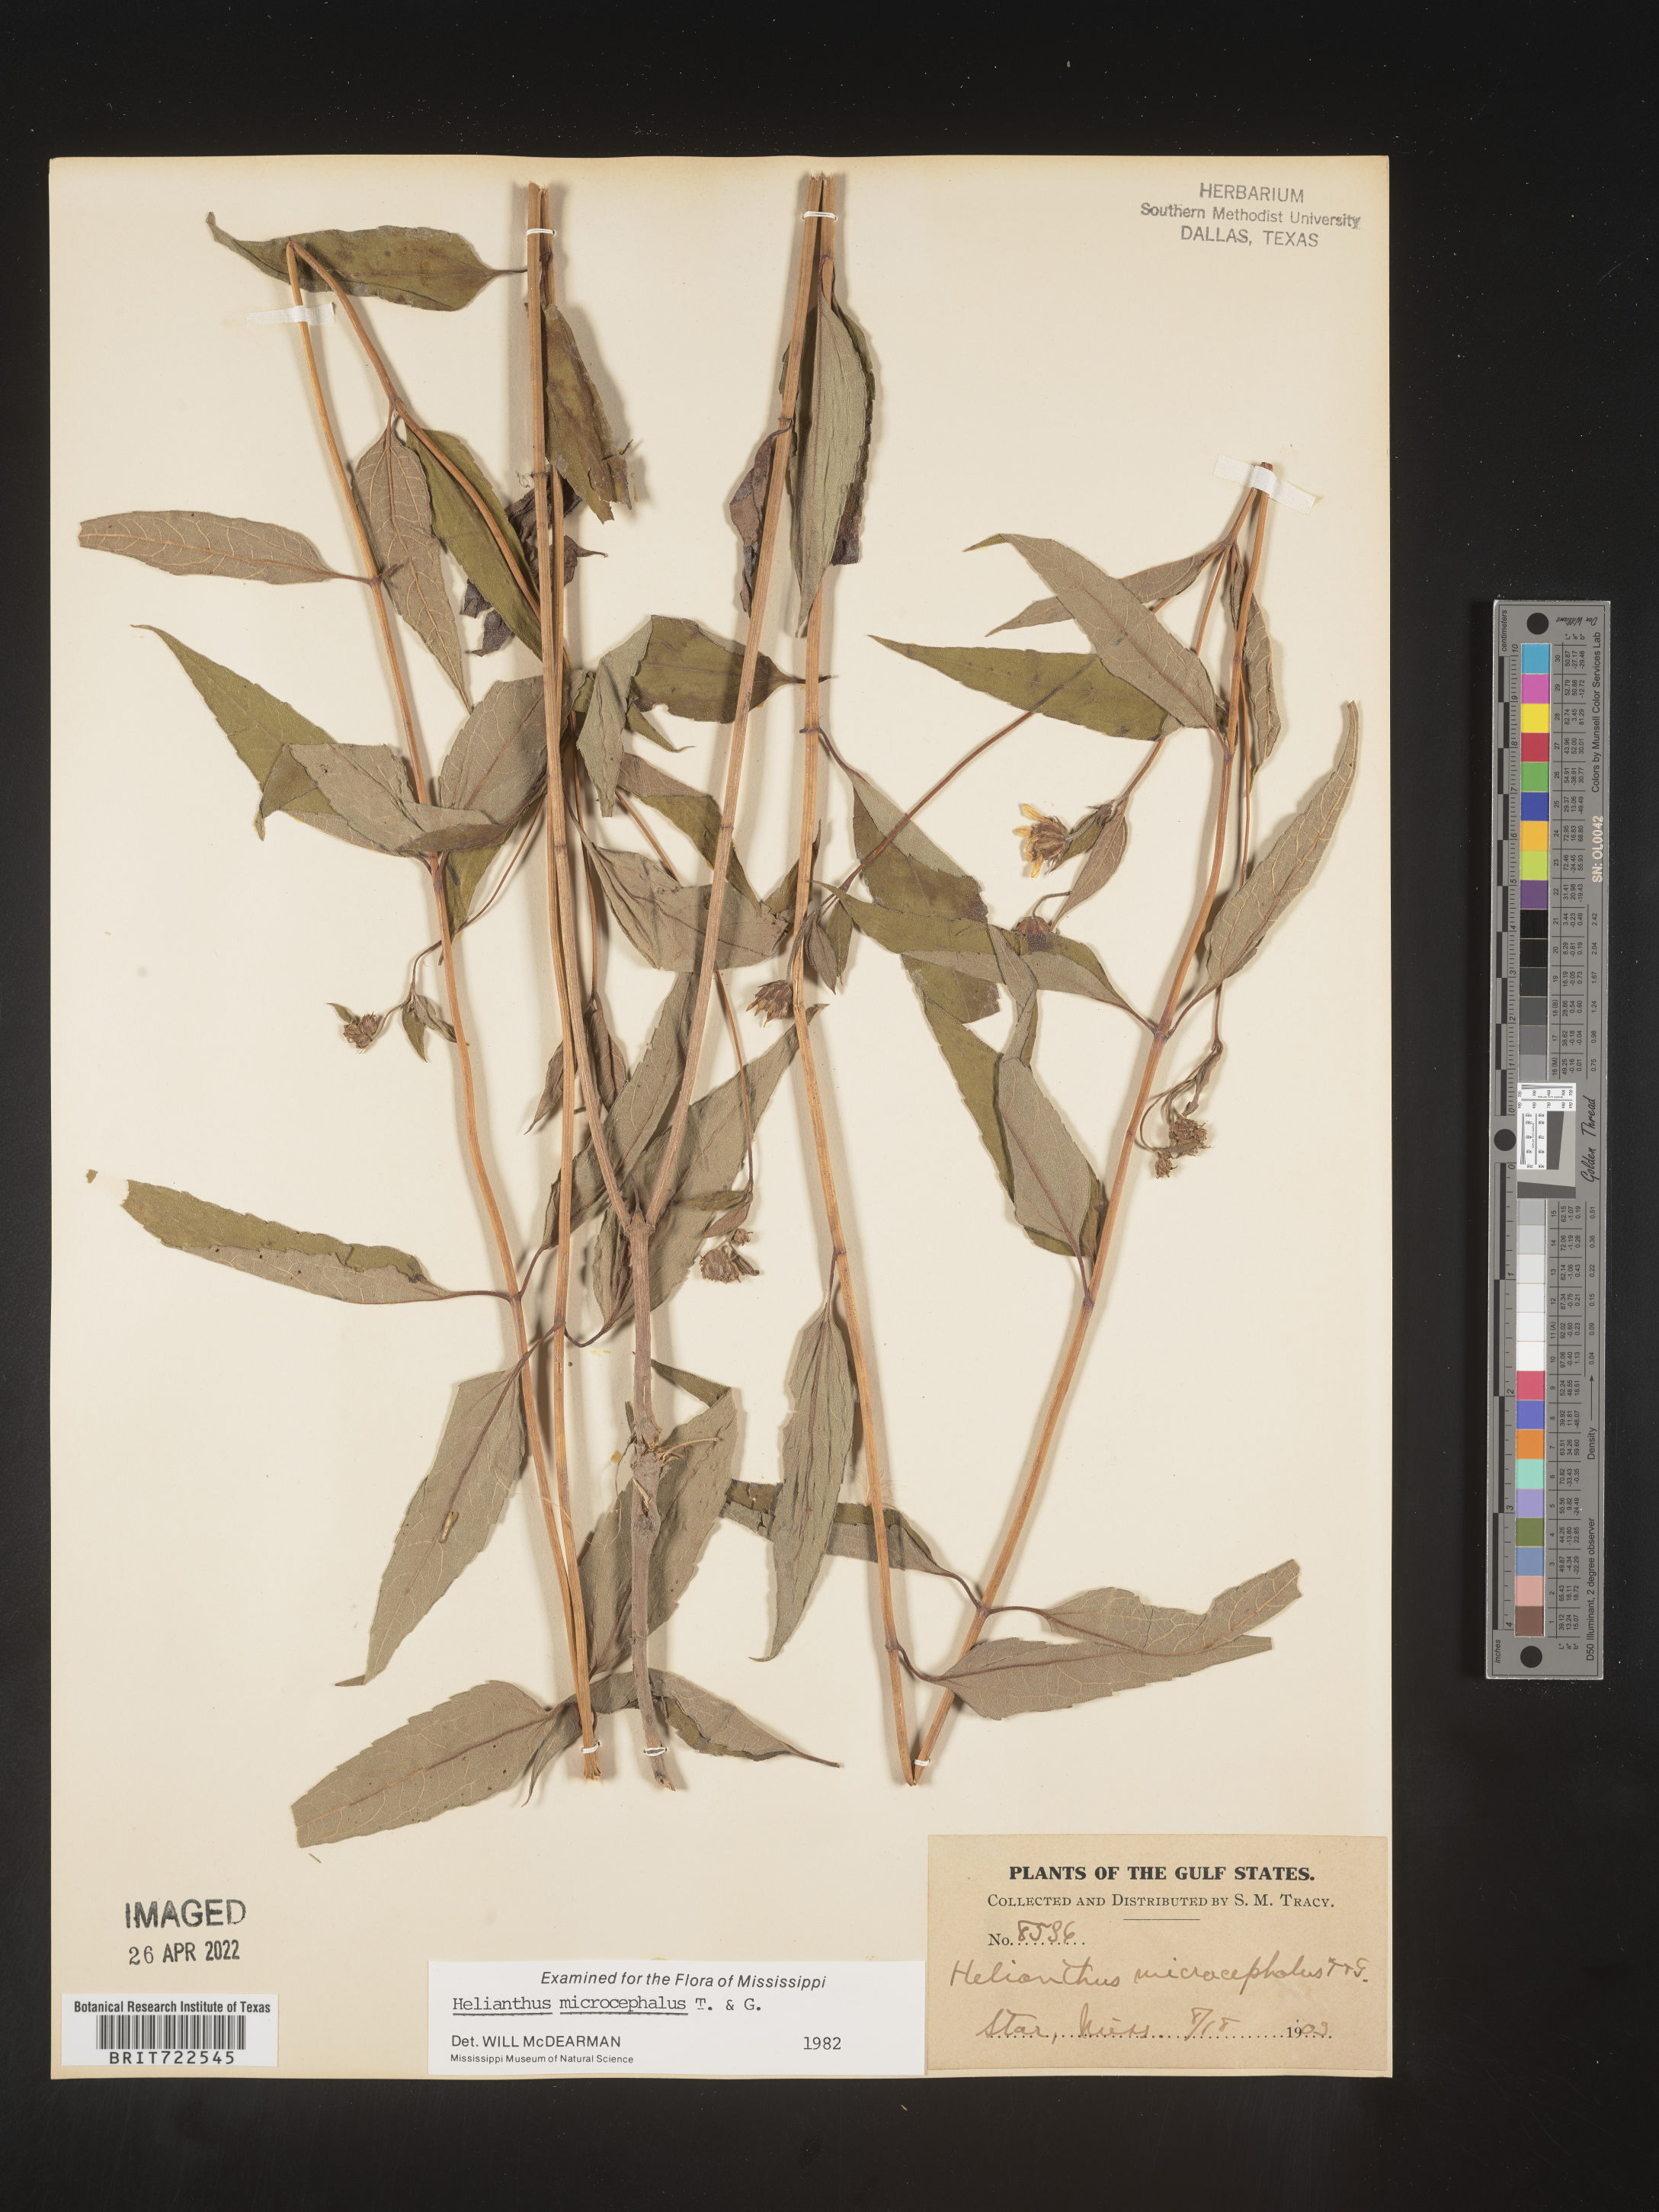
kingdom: Plantae
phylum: Tracheophyta
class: Magnoliopsida
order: Asterales
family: Asteraceae
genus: Helianthus
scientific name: Helianthus microcephalus
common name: Woodland sunflower
